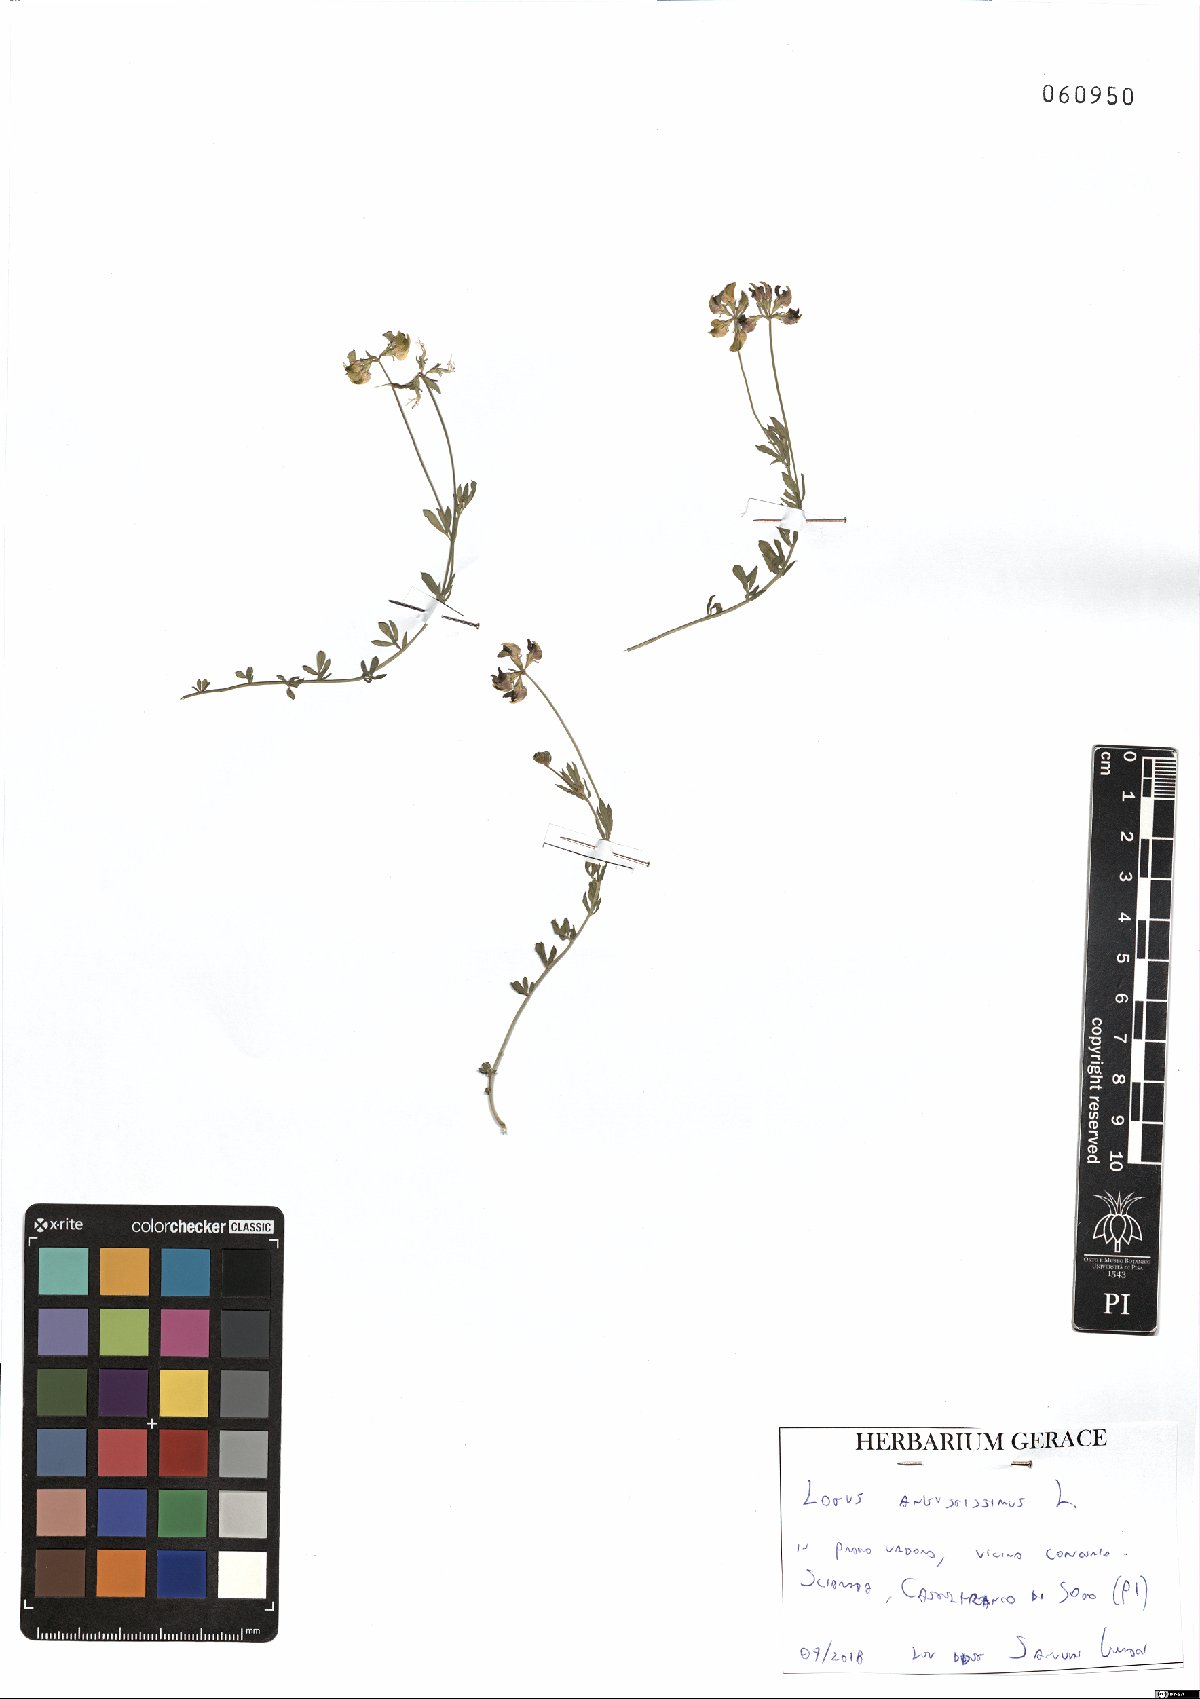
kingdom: Plantae
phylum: Tracheophyta
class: Magnoliopsida
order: Fabales
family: Fabaceae
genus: Lotus
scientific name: Lotus angustissimus
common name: Slender bird's-foot trefoil
